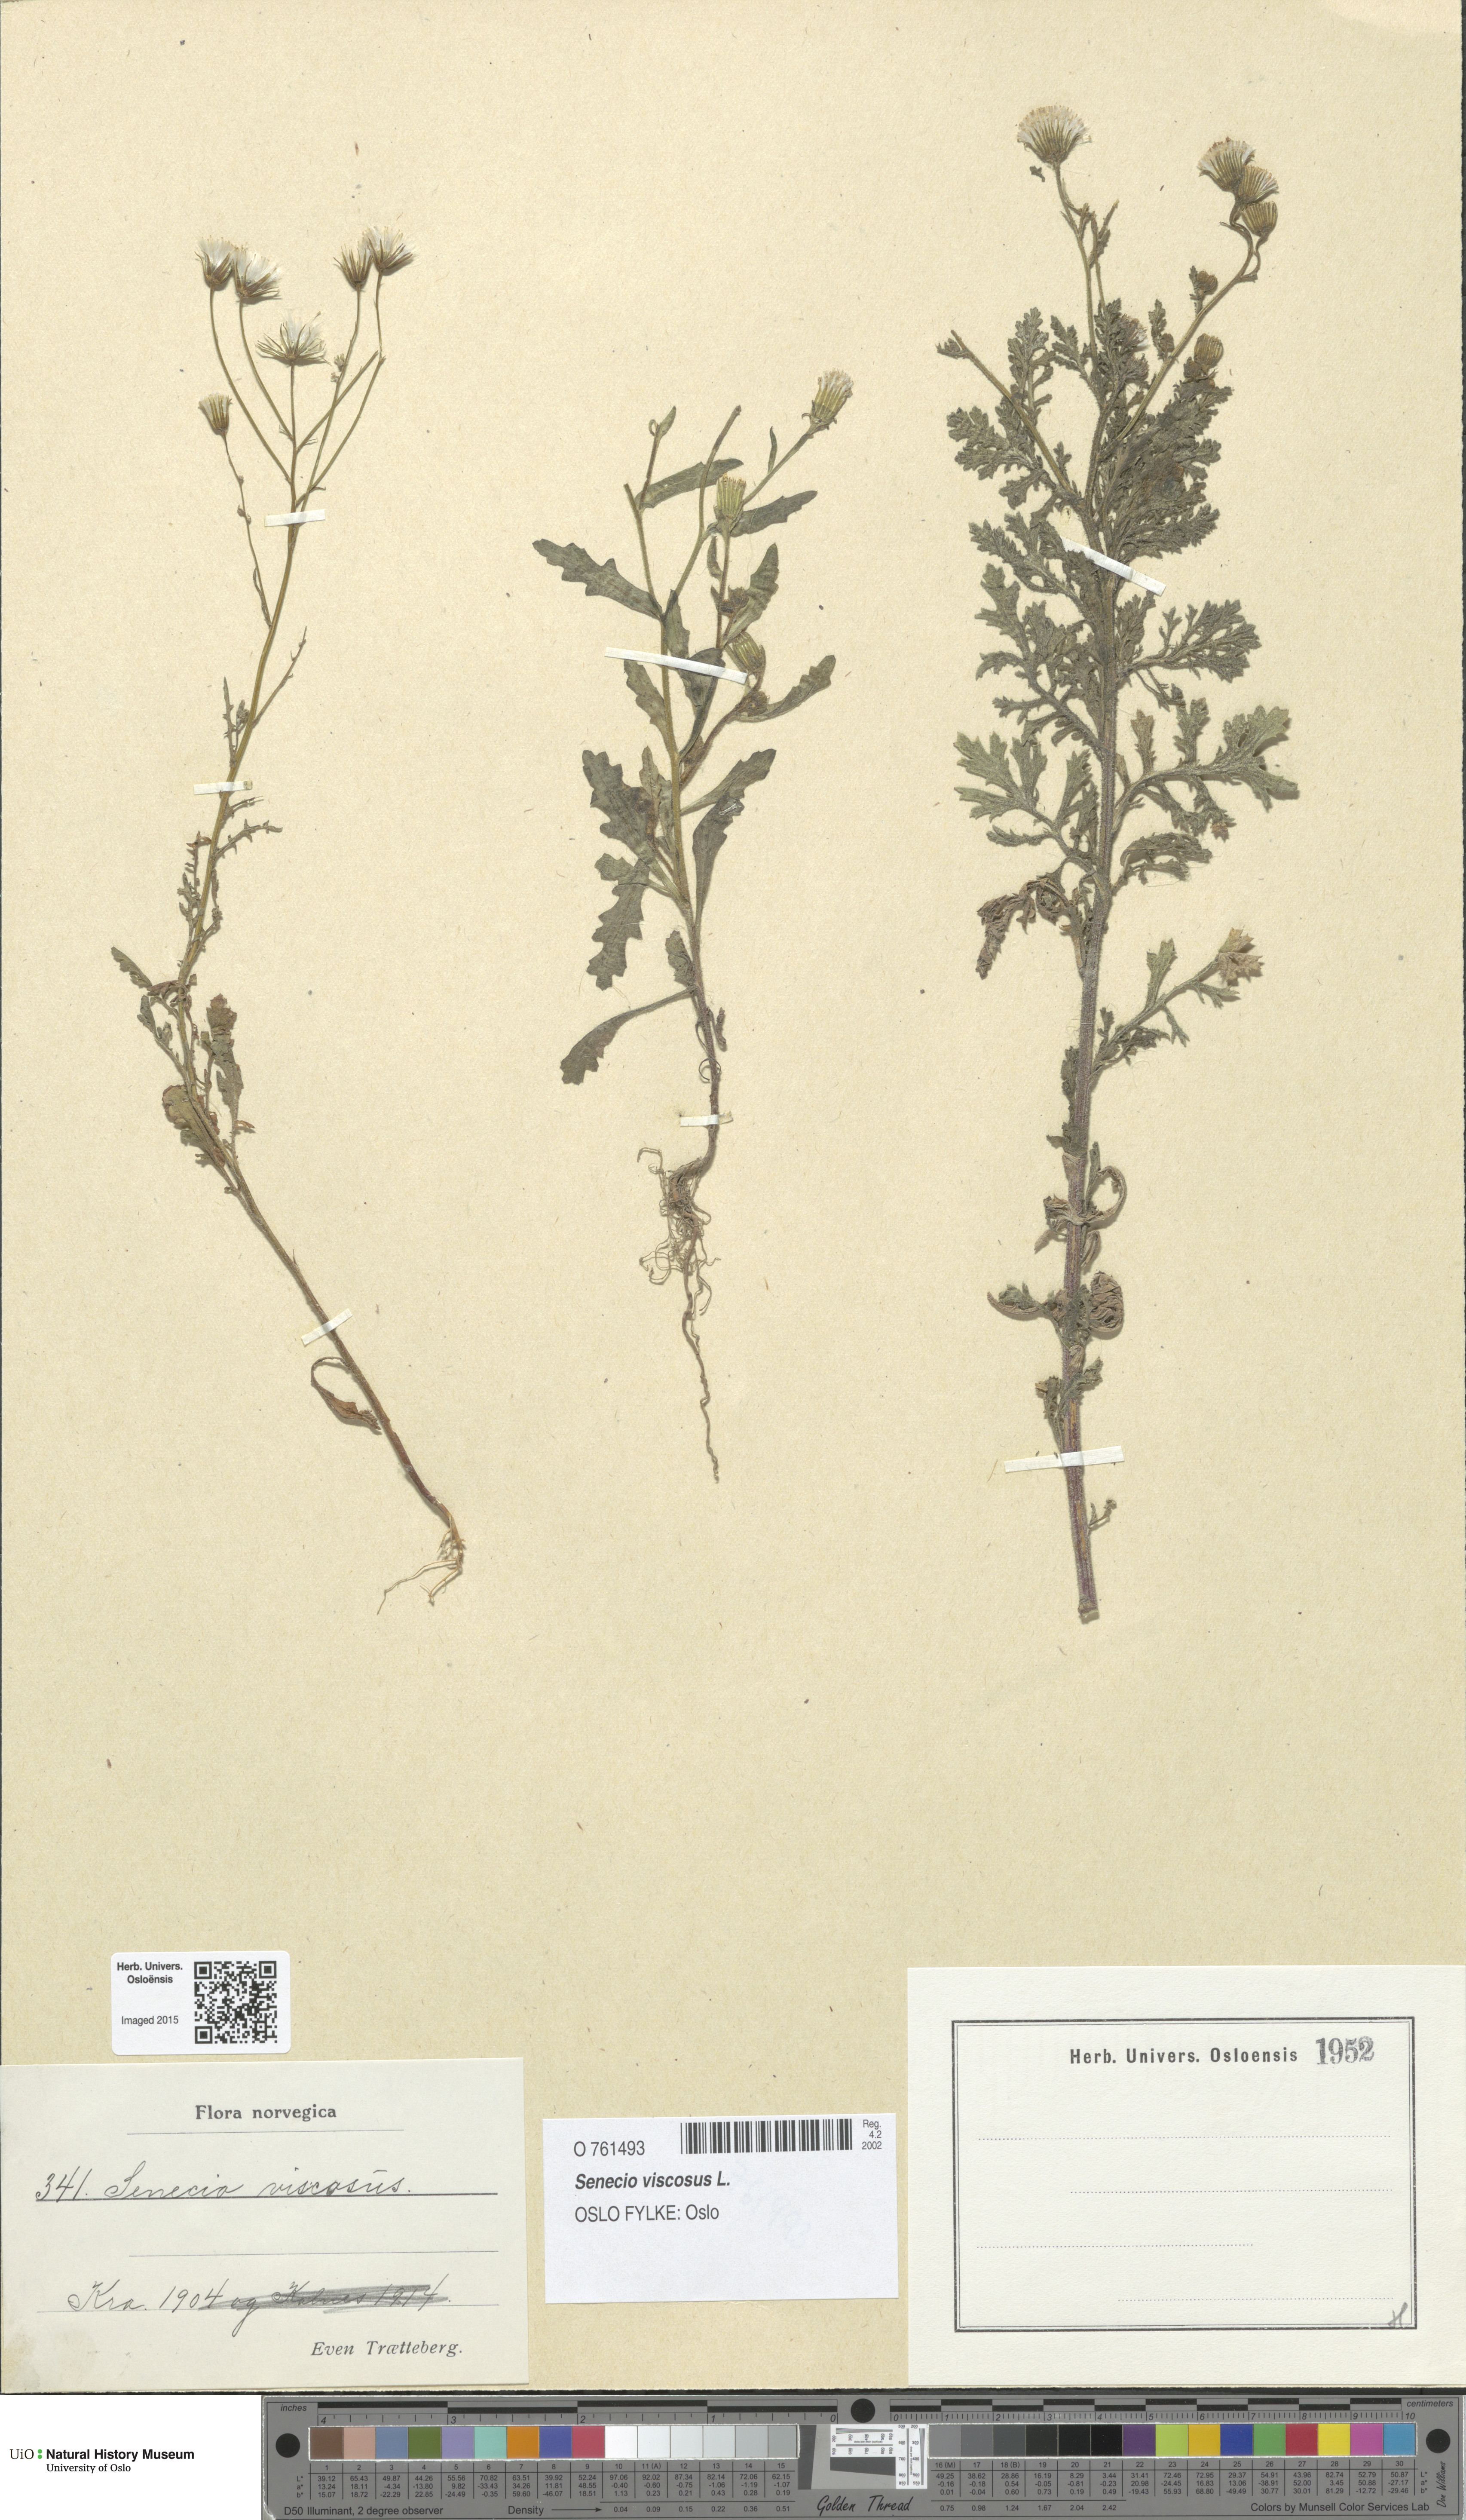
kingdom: Plantae
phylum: Tracheophyta
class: Magnoliopsida
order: Asterales
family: Asteraceae
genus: Senecio
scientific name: Senecio viscosus
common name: Sticky groundsel
